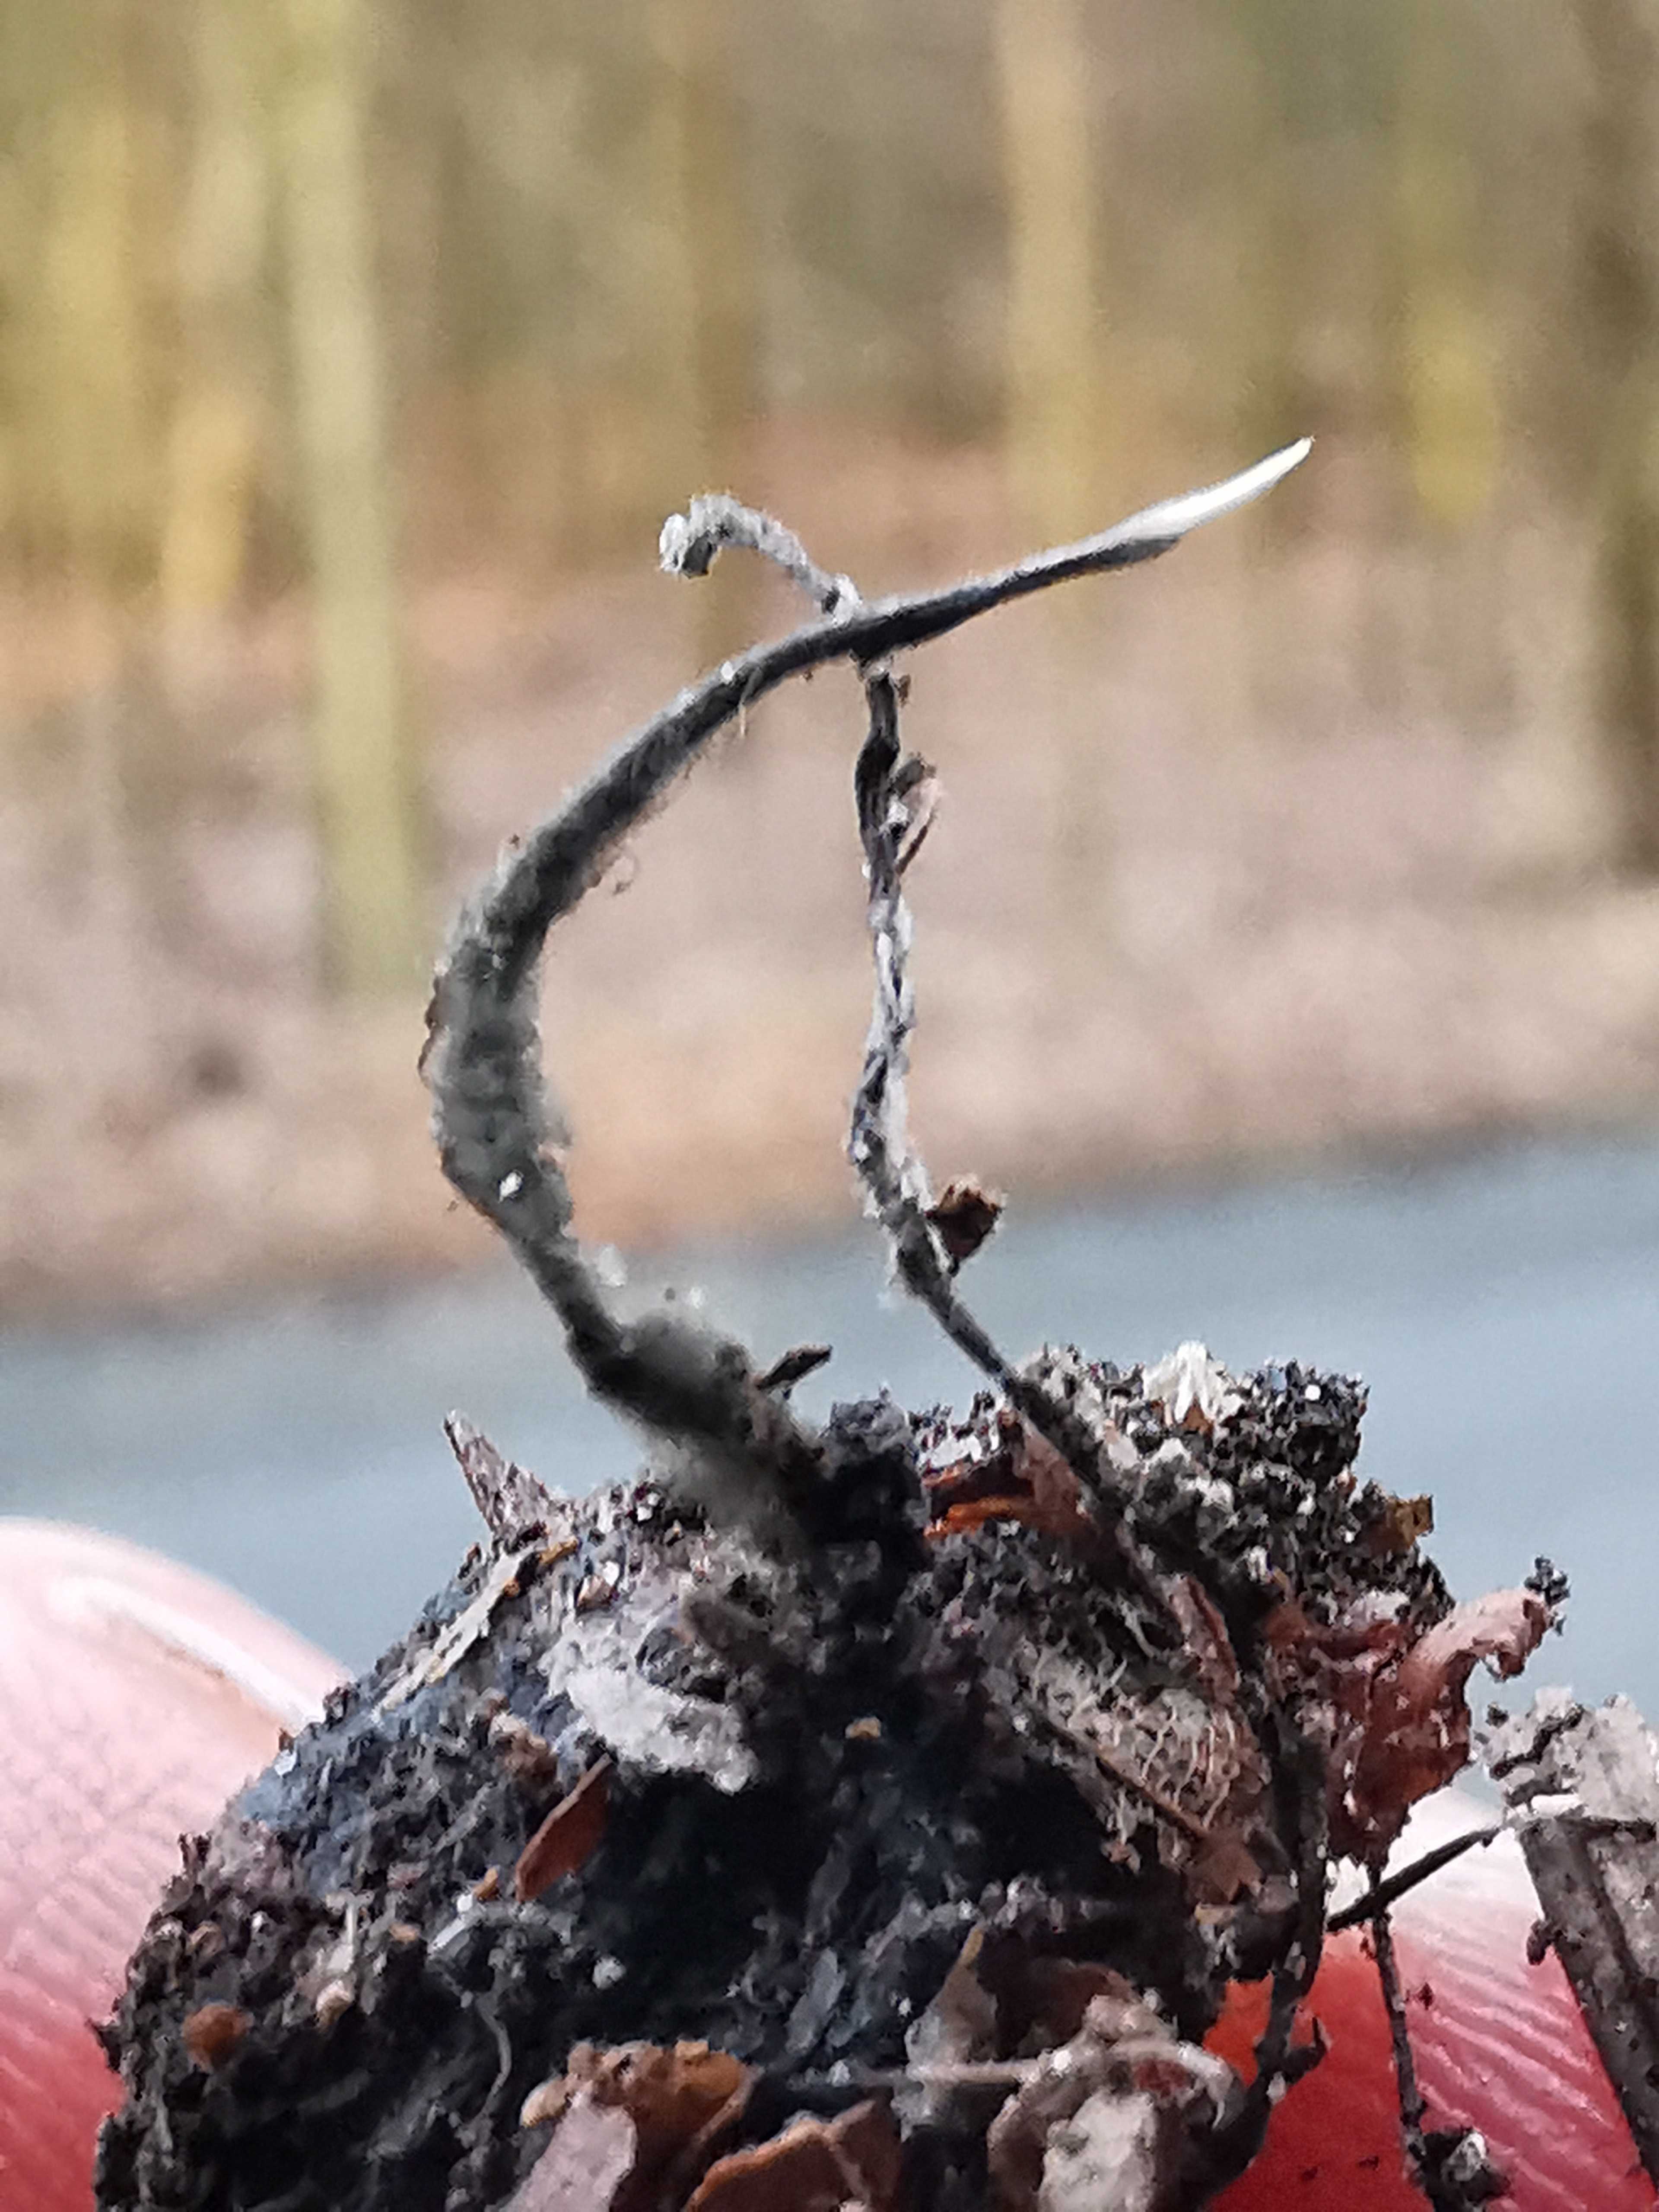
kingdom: Fungi
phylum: Ascomycota
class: Sordariomycetes
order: Xylariales
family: Xylariaceae
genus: Xylaria
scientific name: Xylaria carpophila
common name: bogskål-stødsvamp
